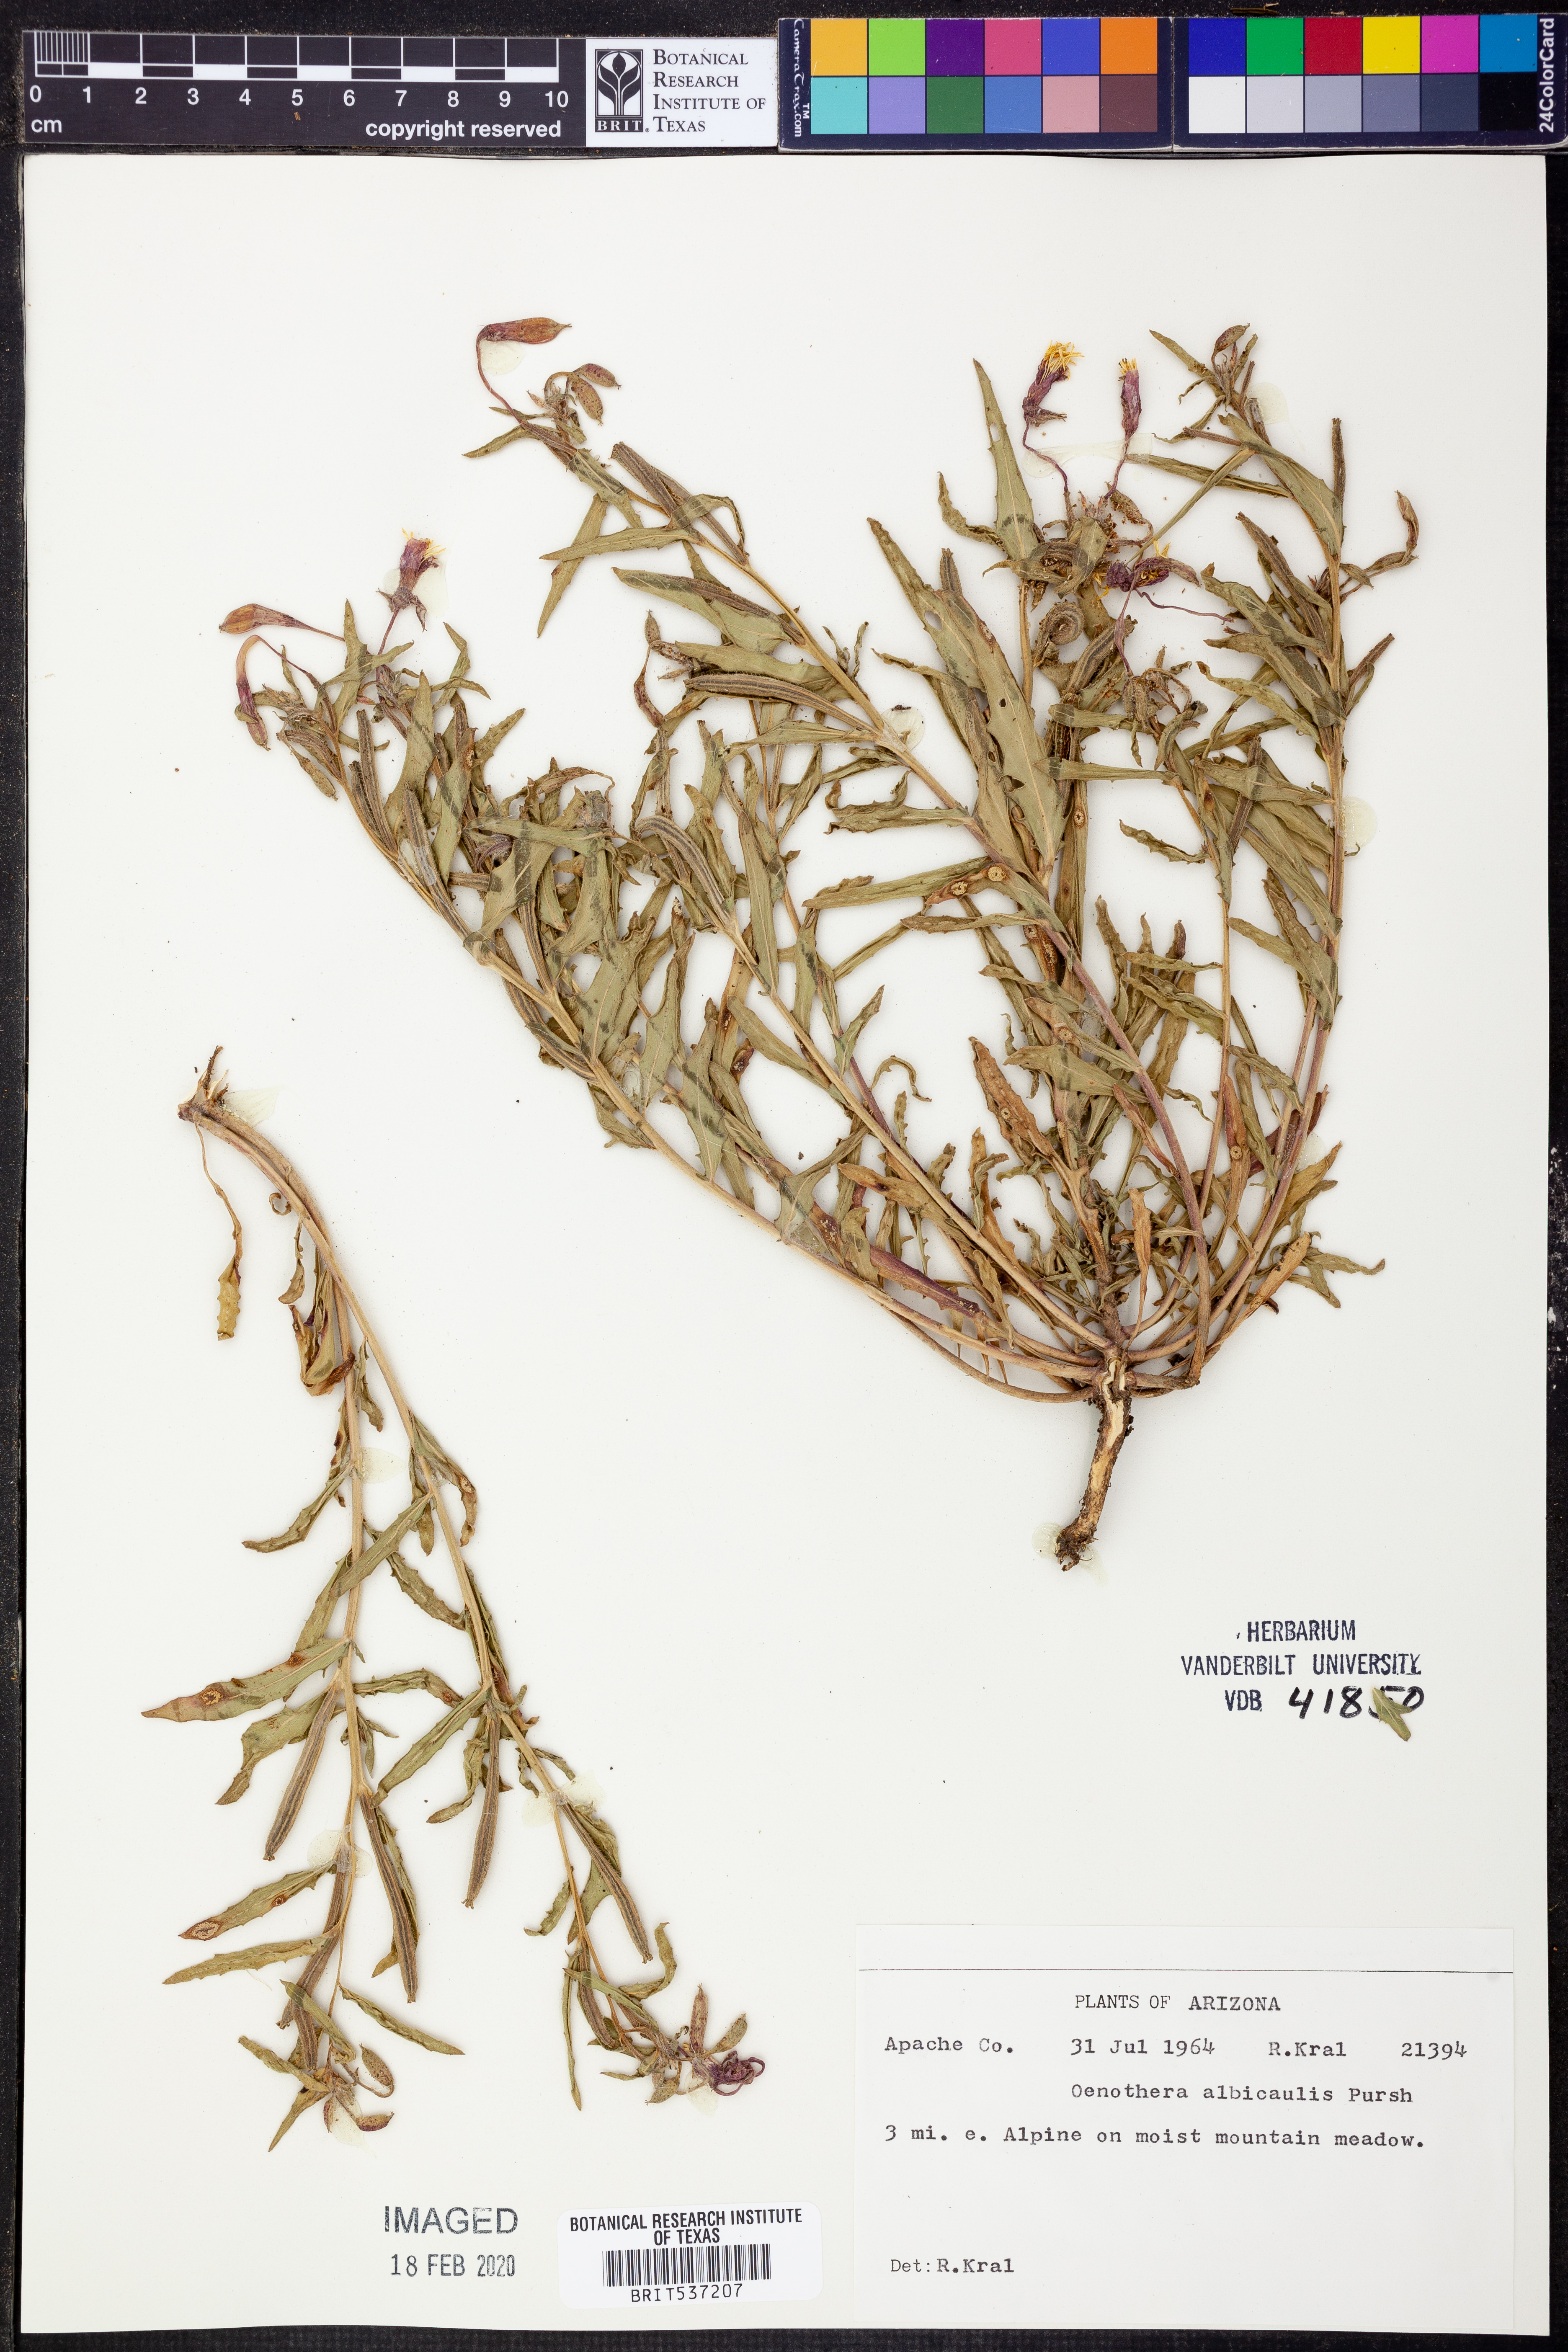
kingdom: Plantae
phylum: Tracheophyta
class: Magnoliopsida
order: Myrtales
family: Onagraceae
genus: Oenothera
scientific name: Oenothera albicaulis
